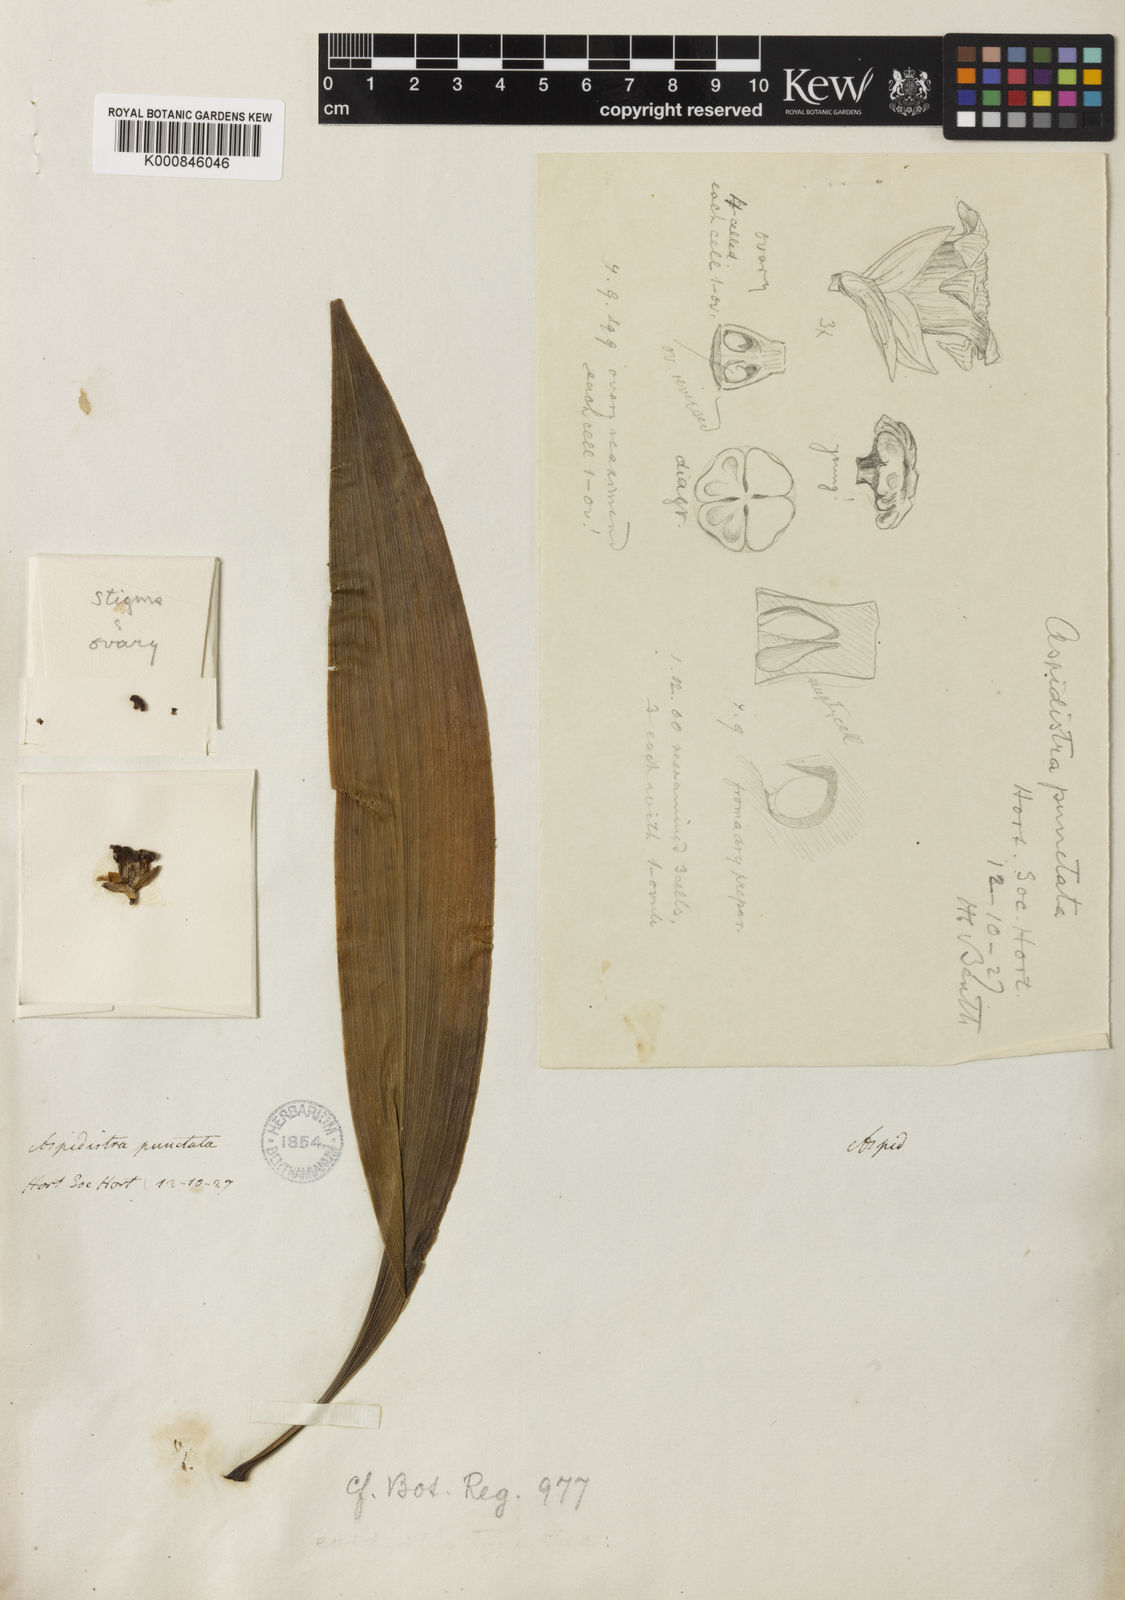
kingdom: Plantae
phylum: Tracheophyta
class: Liliopsida
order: Asparagales
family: Asparagaceae
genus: Aspidistra
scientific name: Aspidistra punctata
